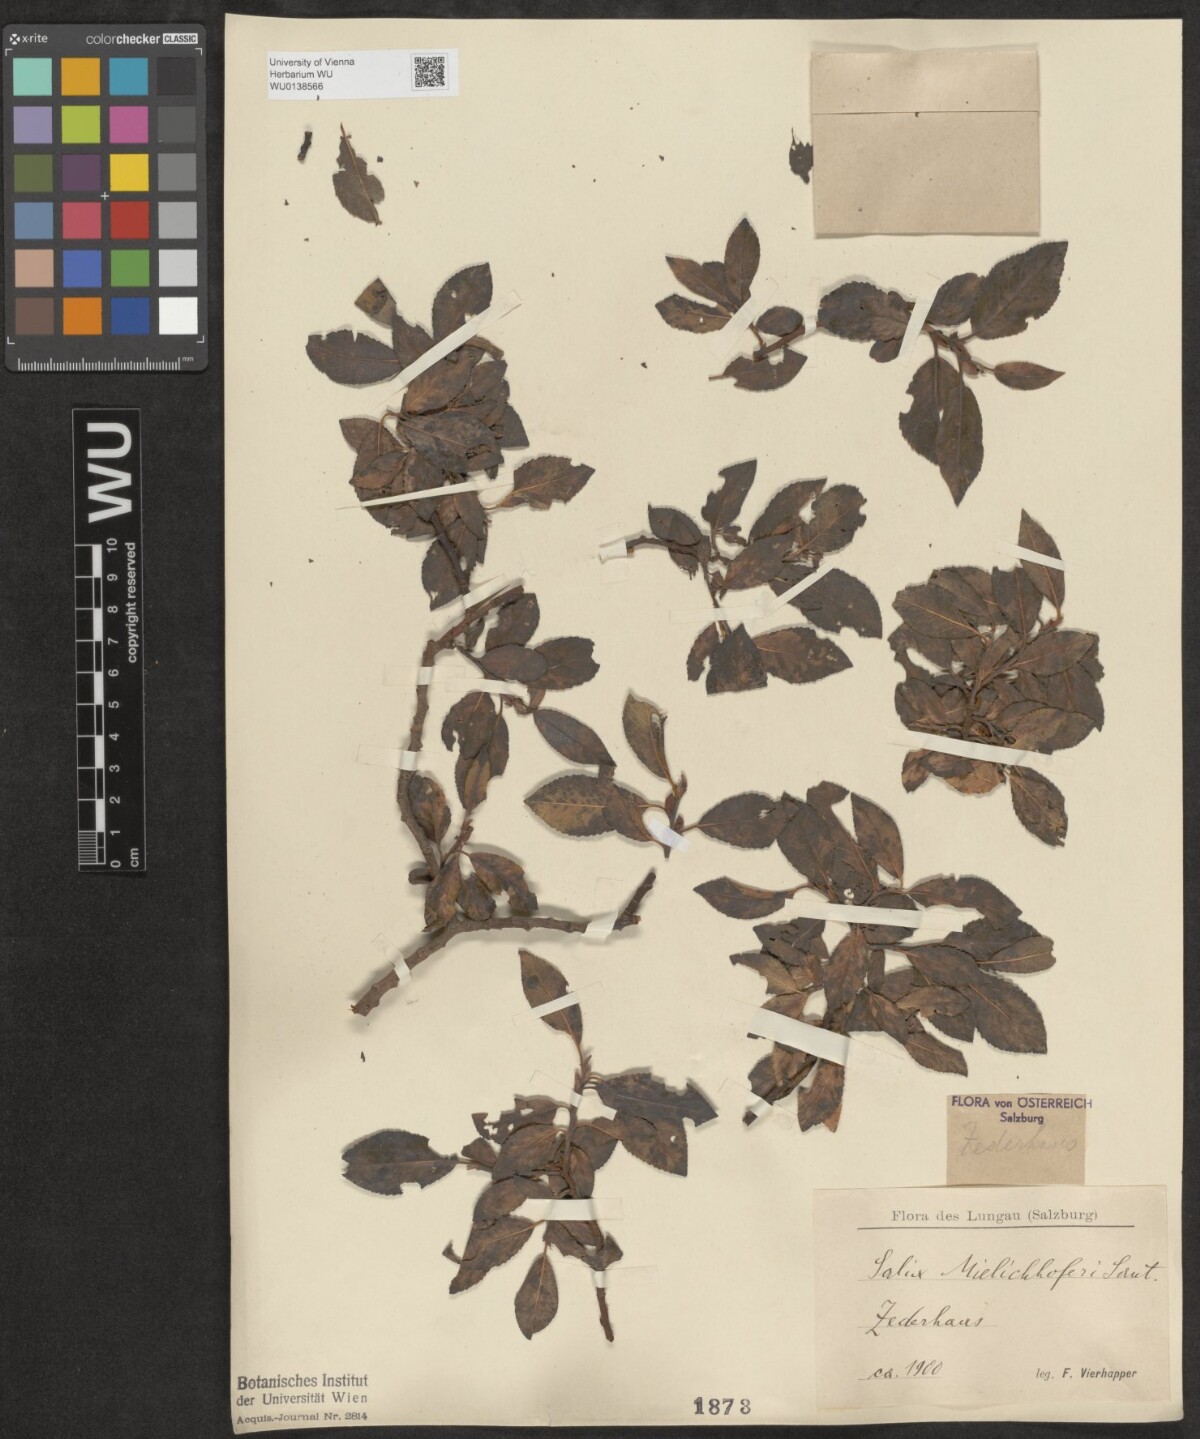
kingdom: Plantae
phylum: Tracheophyta
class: Magnoliopsida
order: Malpighiales
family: Salicaceae
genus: Salix
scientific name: Salix mielichhoferi
